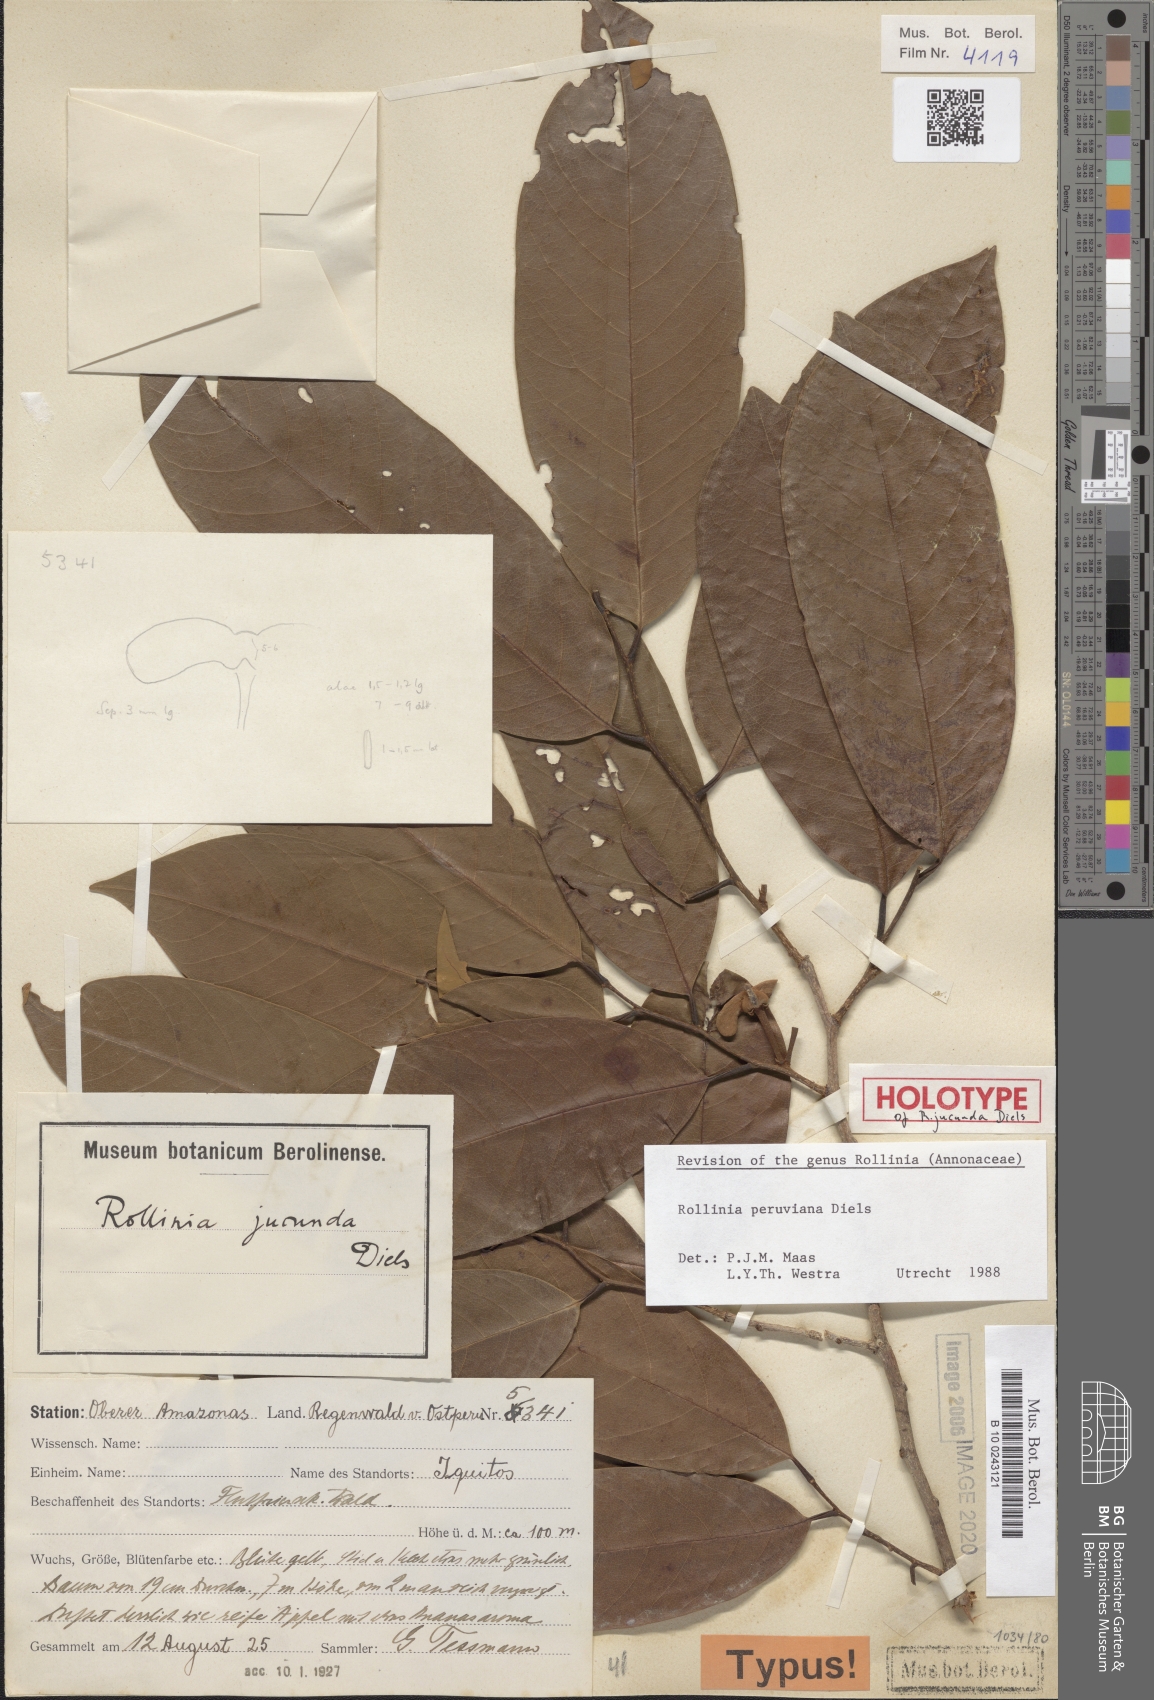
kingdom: Plantae
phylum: Tracheophyta
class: Magnoliopsida
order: Magnoliales
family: Annonaceae
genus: Annona
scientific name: Annona jucunda
